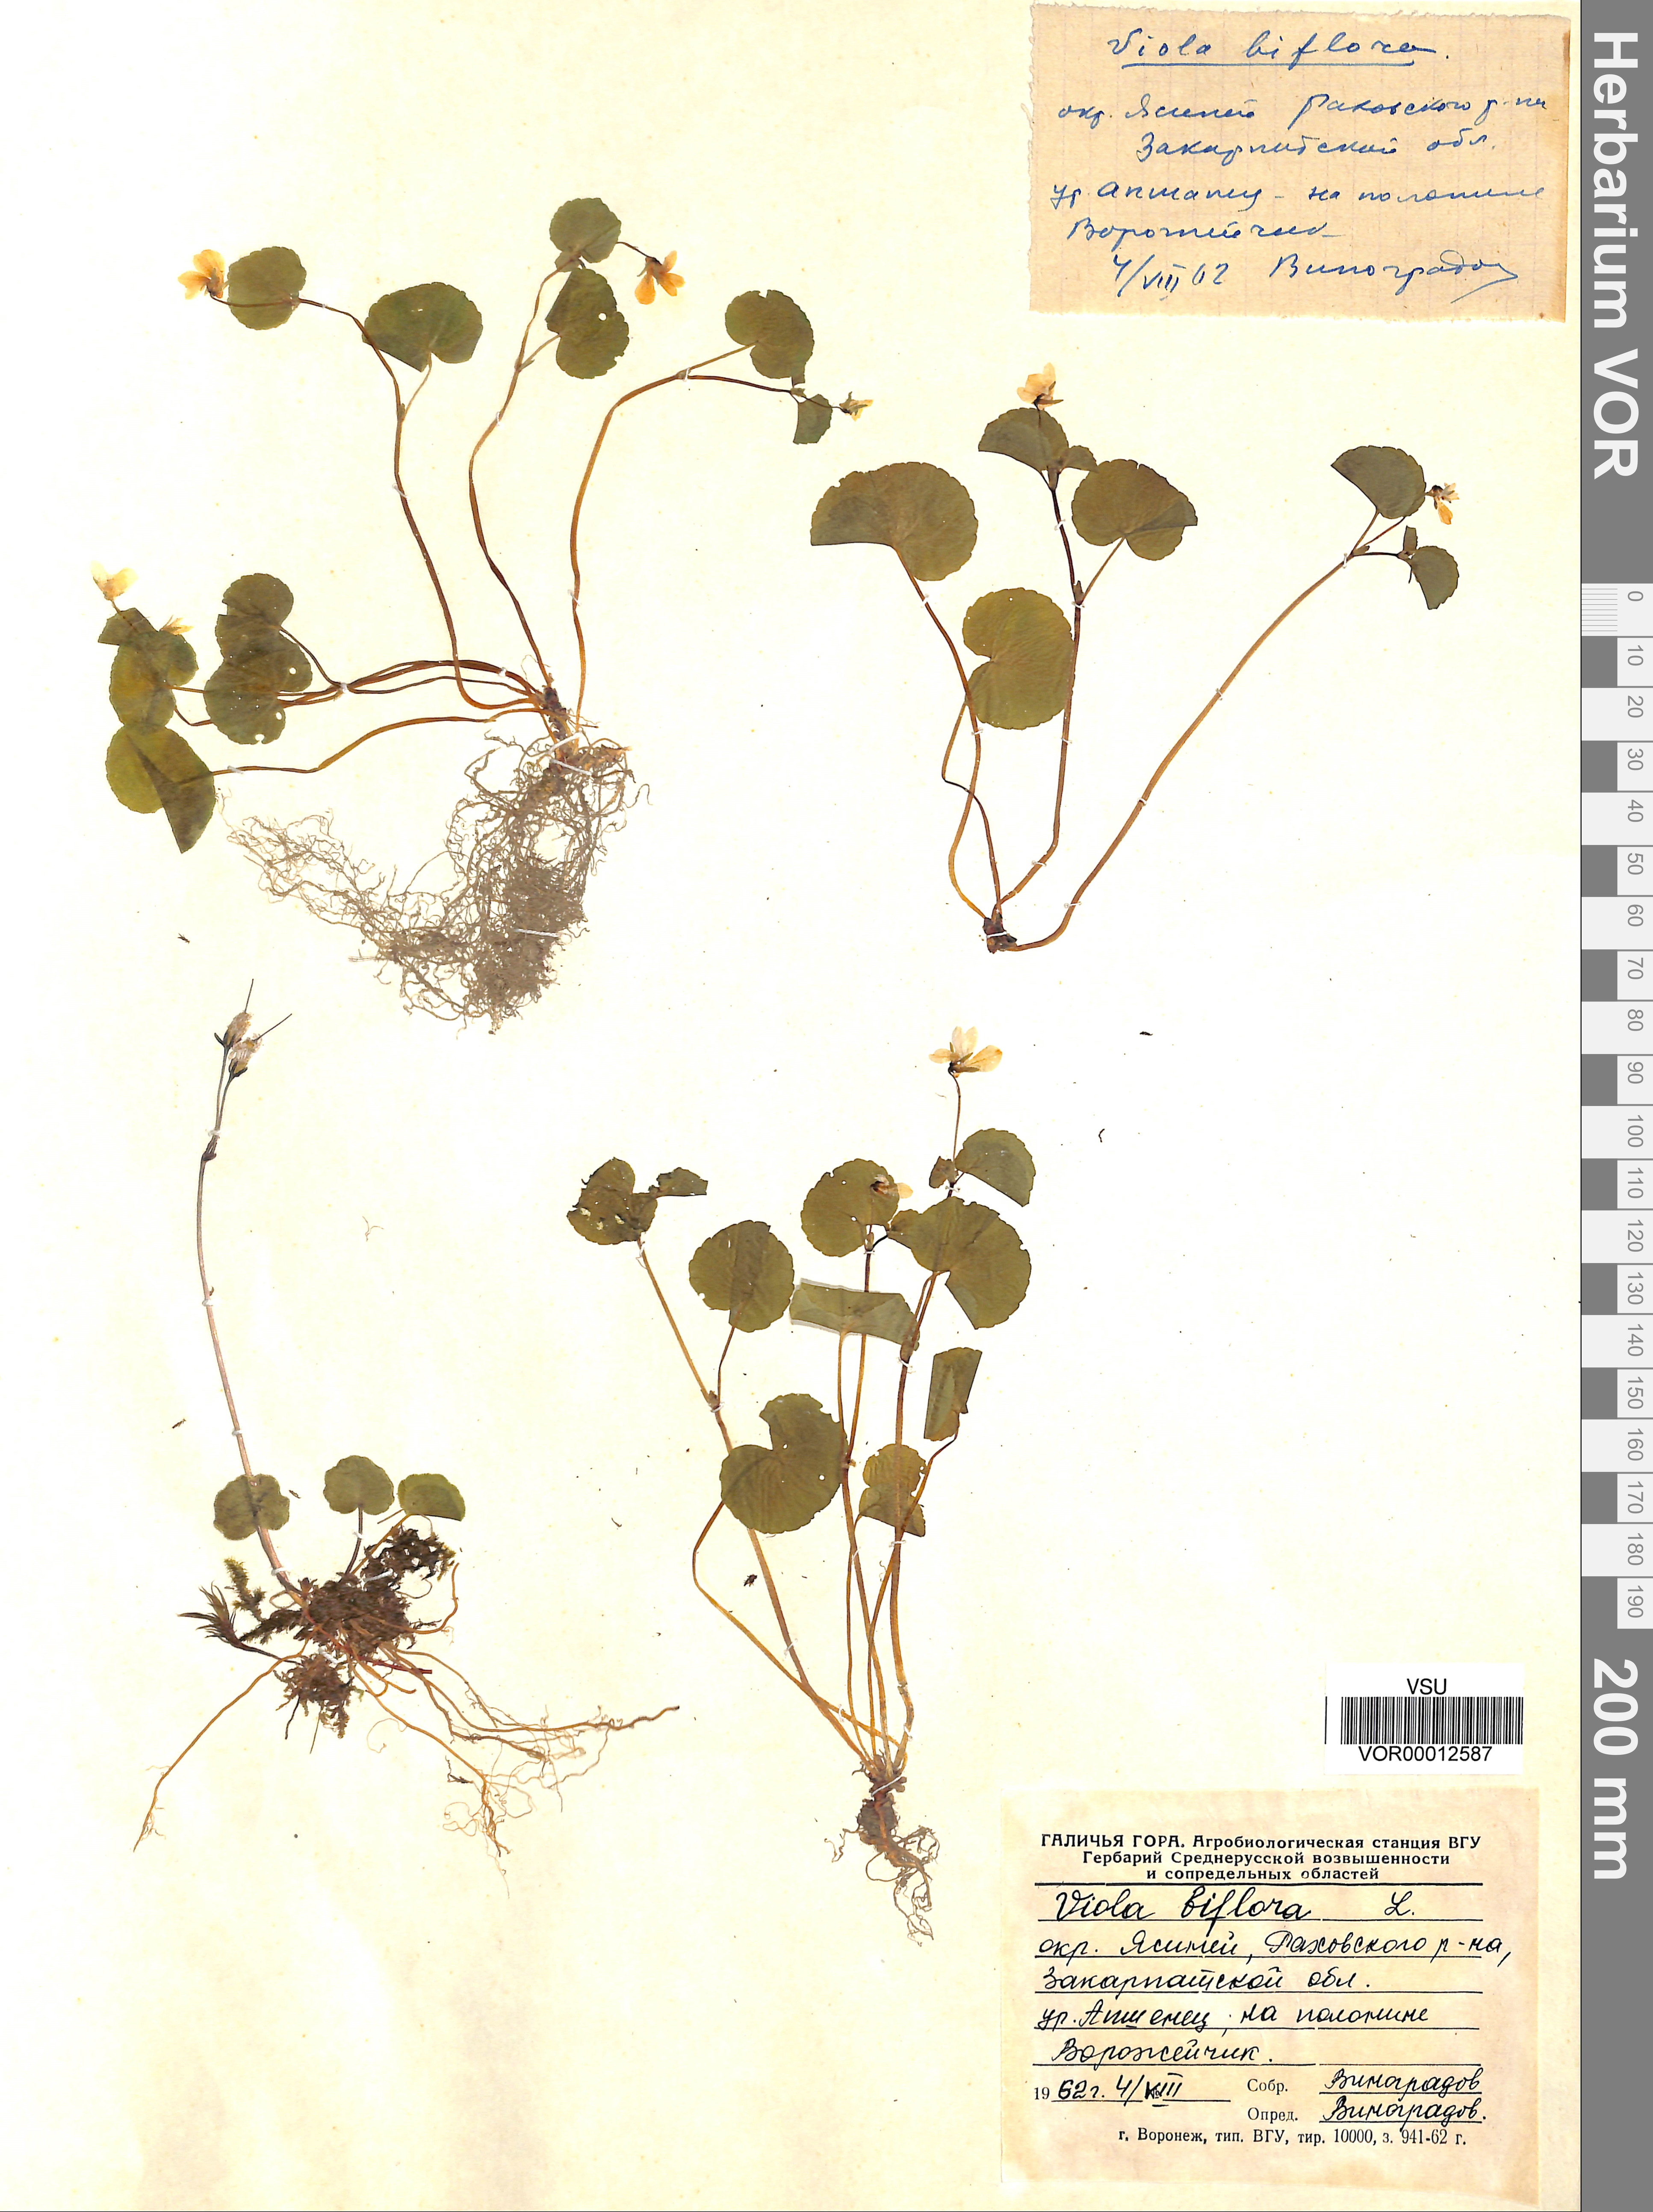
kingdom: Plantae
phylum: Tracheophyta
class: Magnoliopsida
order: Malpighiales
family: Violaceae
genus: Viola
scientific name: Viola biflora
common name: Alpine yellow violet
